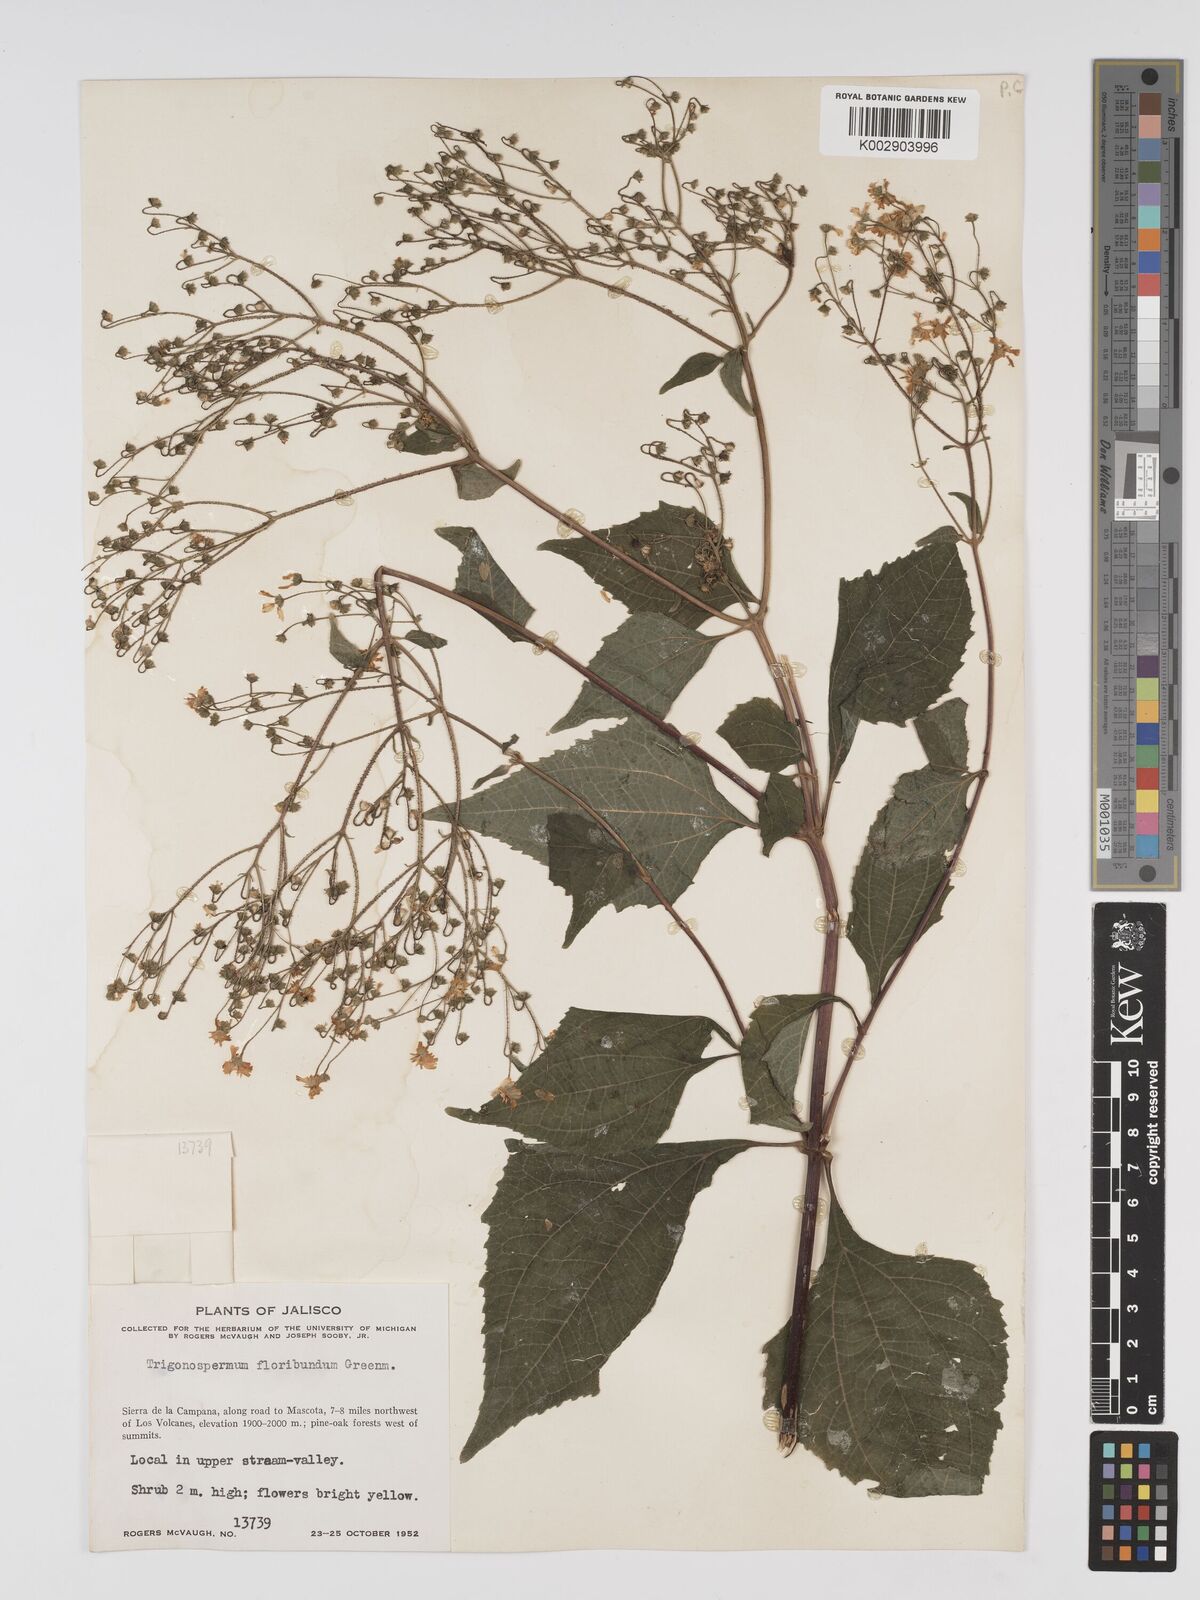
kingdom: Plantae
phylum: Tracheophyta
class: Magnoliopsida
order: Asterales
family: Asteraceae
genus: Trigonospermum
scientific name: Trigonospermum melampodioides
